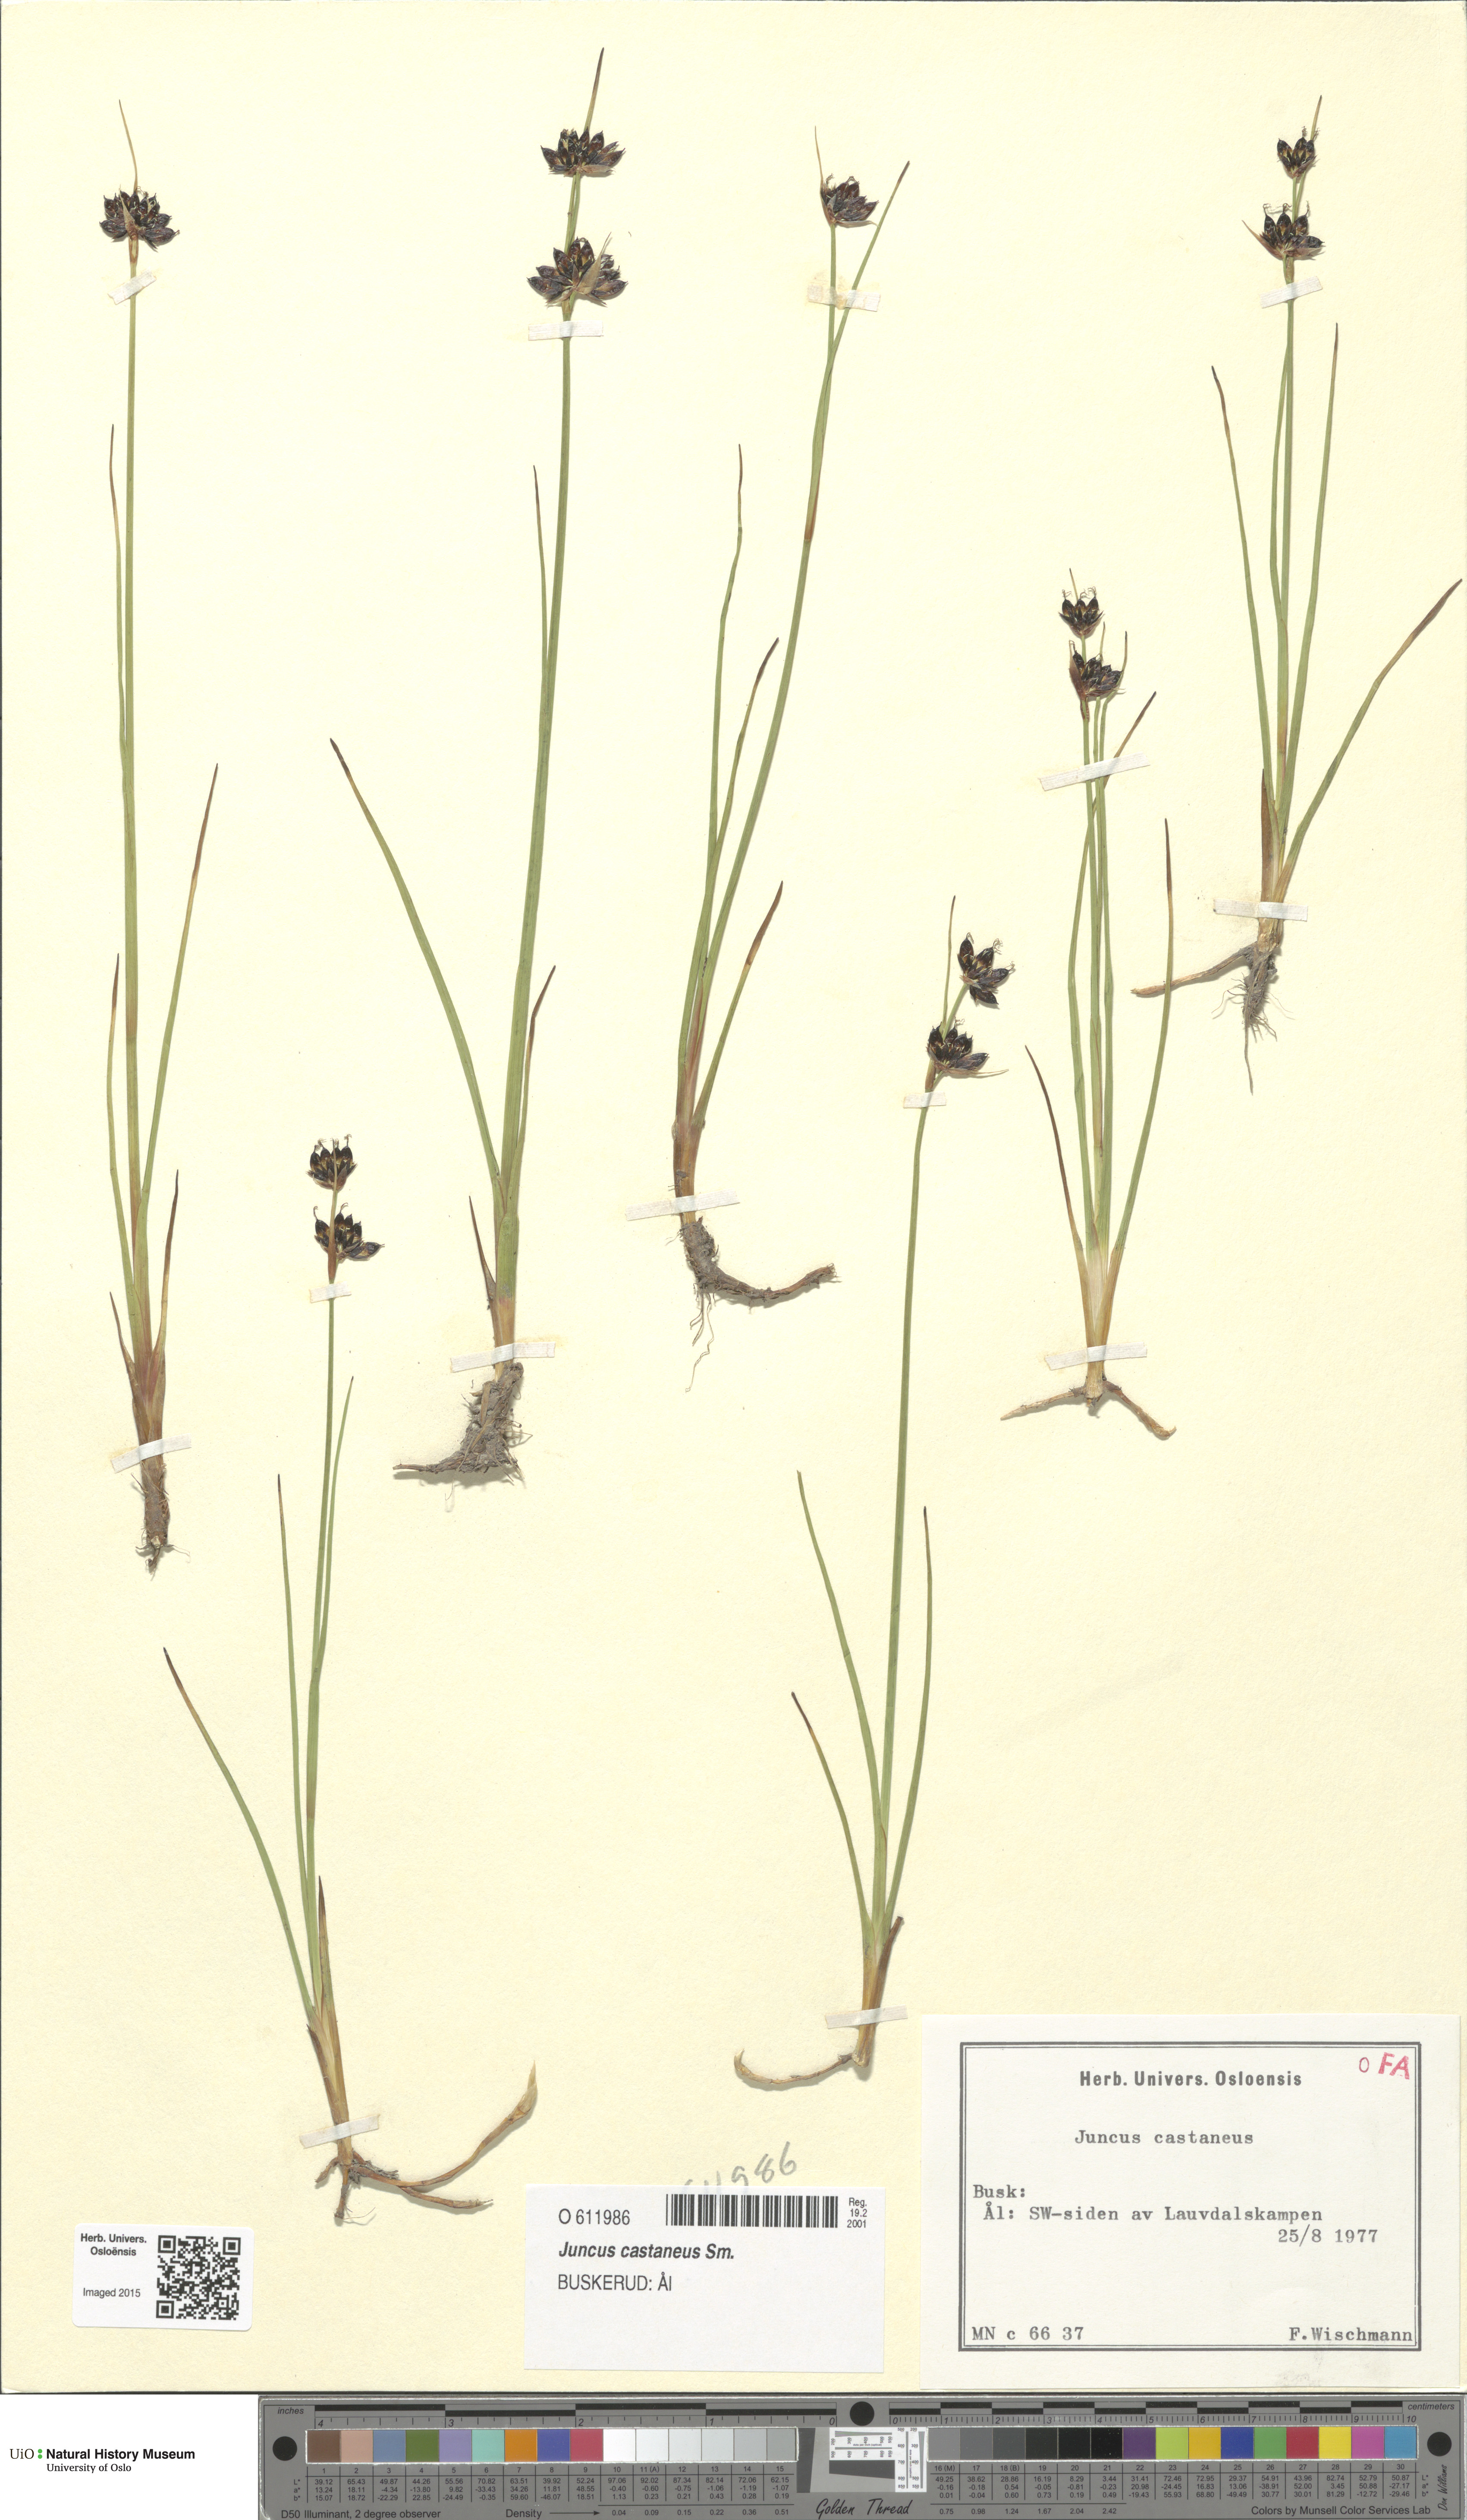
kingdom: Plantae
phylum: Tracheophyta
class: Liliopsida
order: Poales
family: Juncaceae
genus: Juncus
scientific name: Juncus castaneus
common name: Chestnut rush
